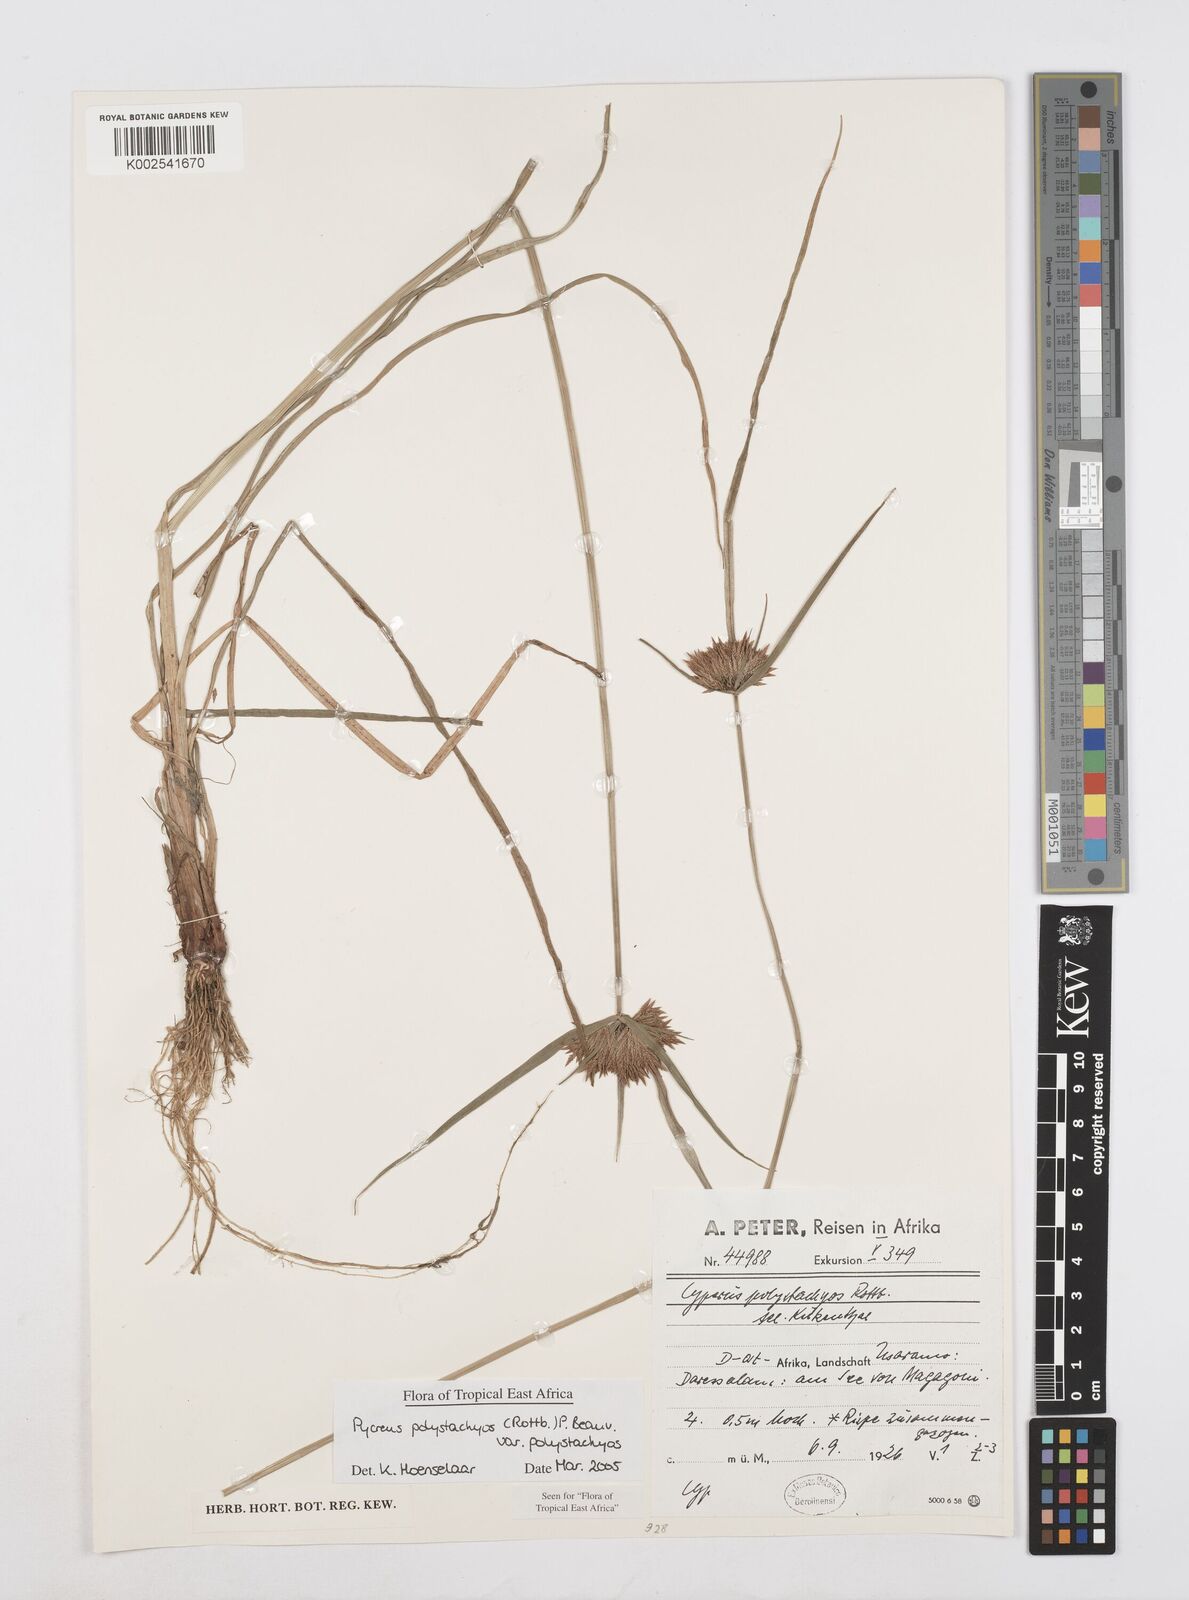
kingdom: Plantae
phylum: Tracheophyta
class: Liliopsida
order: Poales
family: Cyperaceae
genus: Cyperus
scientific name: Cyperus polystachyos
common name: Bunchy flat sedge
